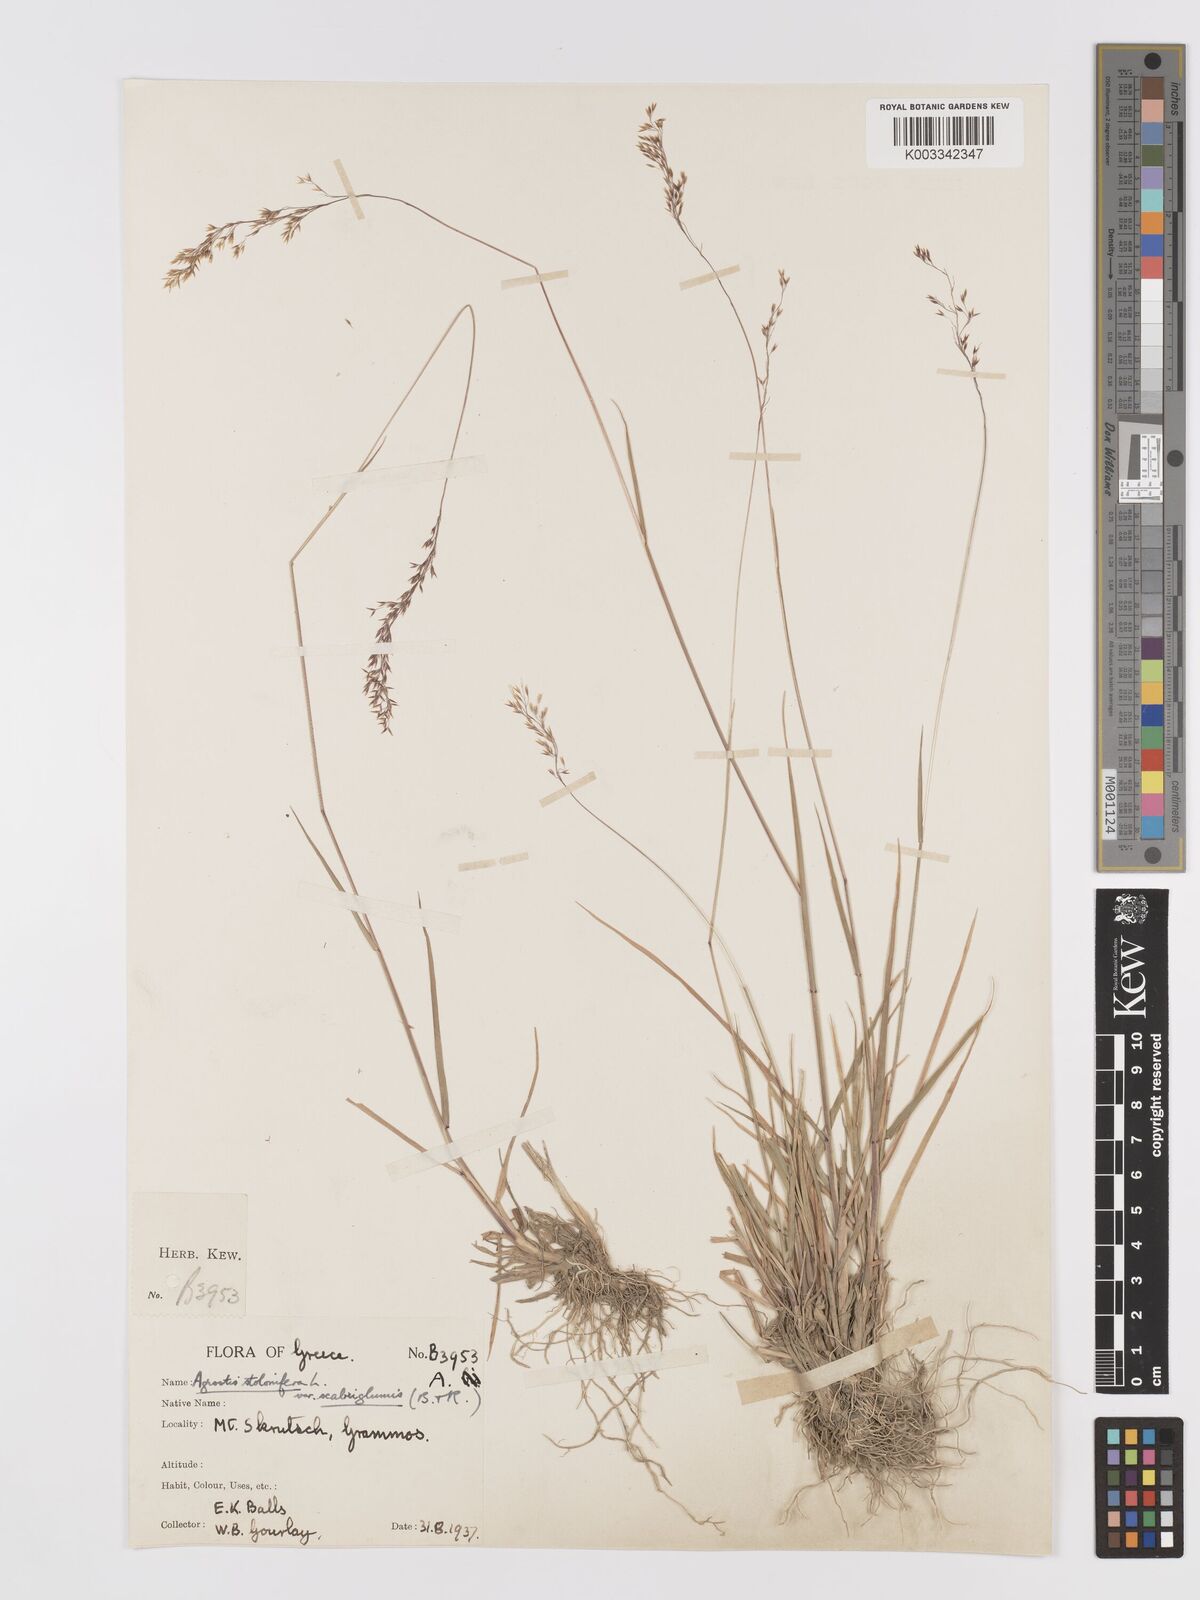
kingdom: Plantae
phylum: Tracheophyta
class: Liliopsida
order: Poales
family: Poaceae
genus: Agrostis
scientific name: Agrostis gigantea
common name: Black bent
